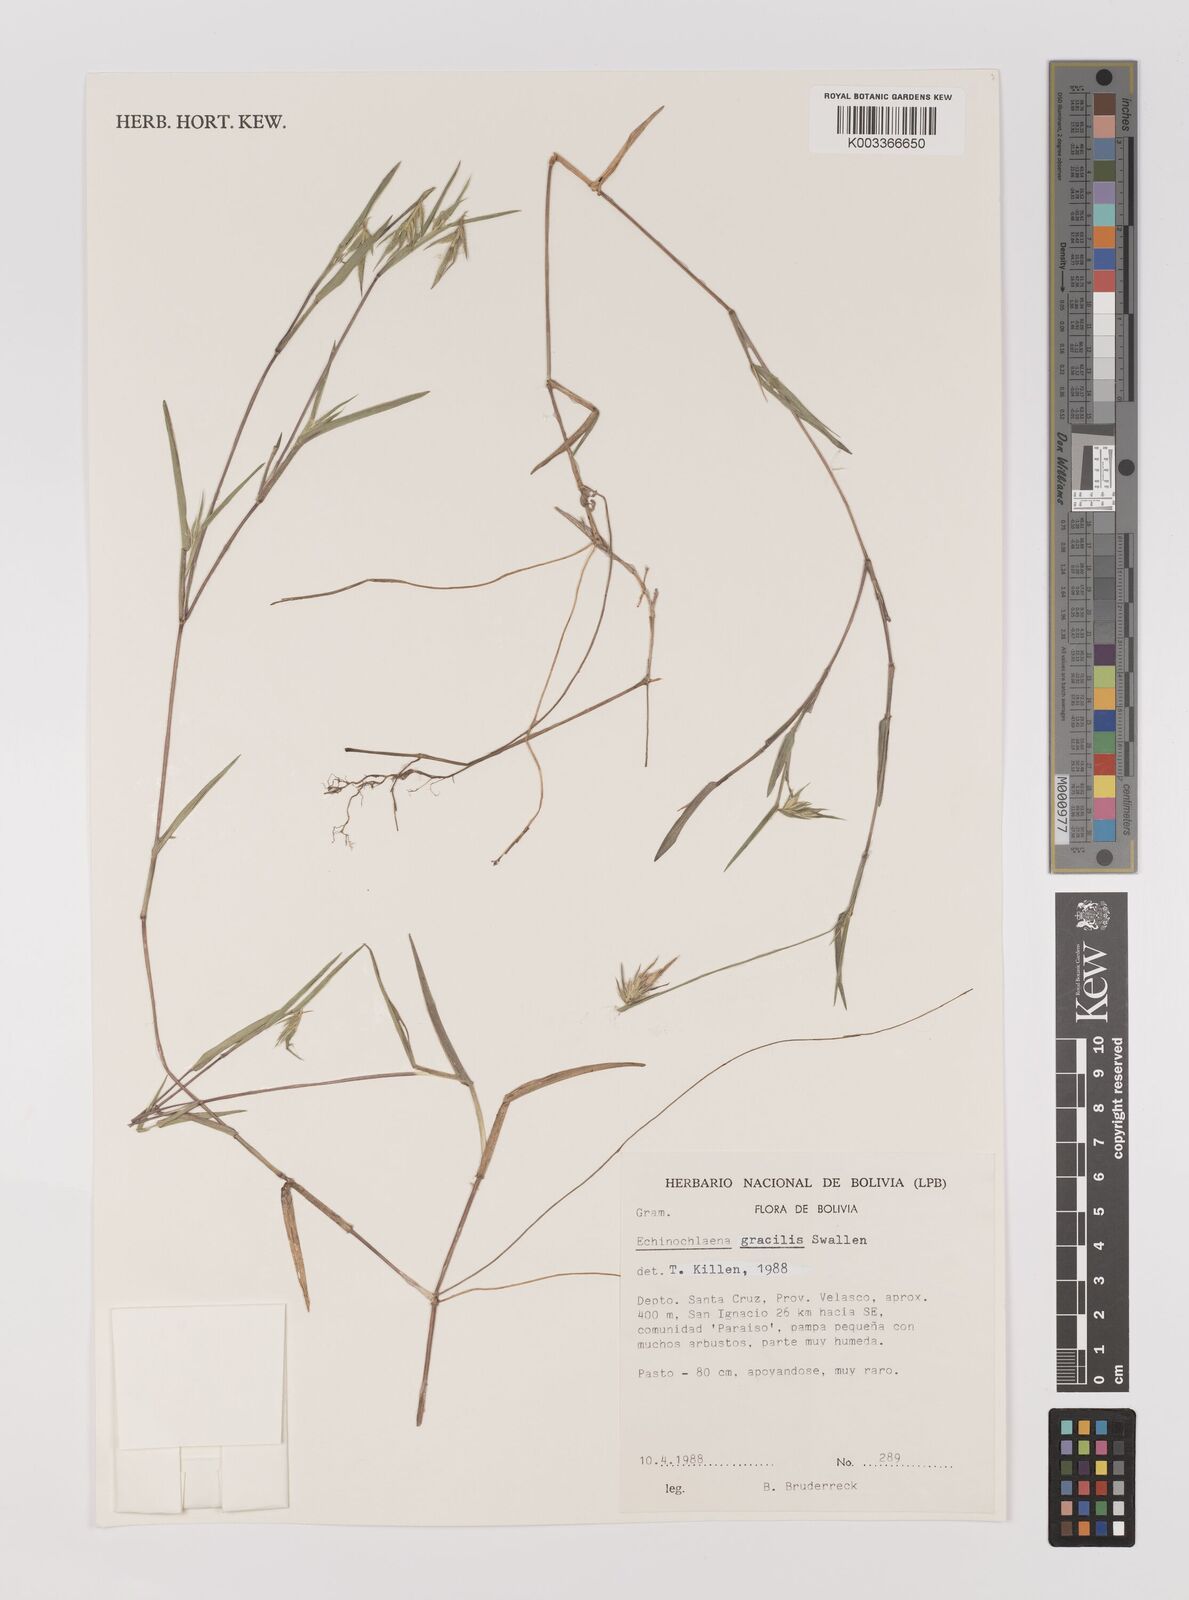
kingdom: Plantae
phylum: Tracheophyta
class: Liliopsida
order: Poales
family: Poaceae
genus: Echinolaena
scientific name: Echinolaena gracilis
